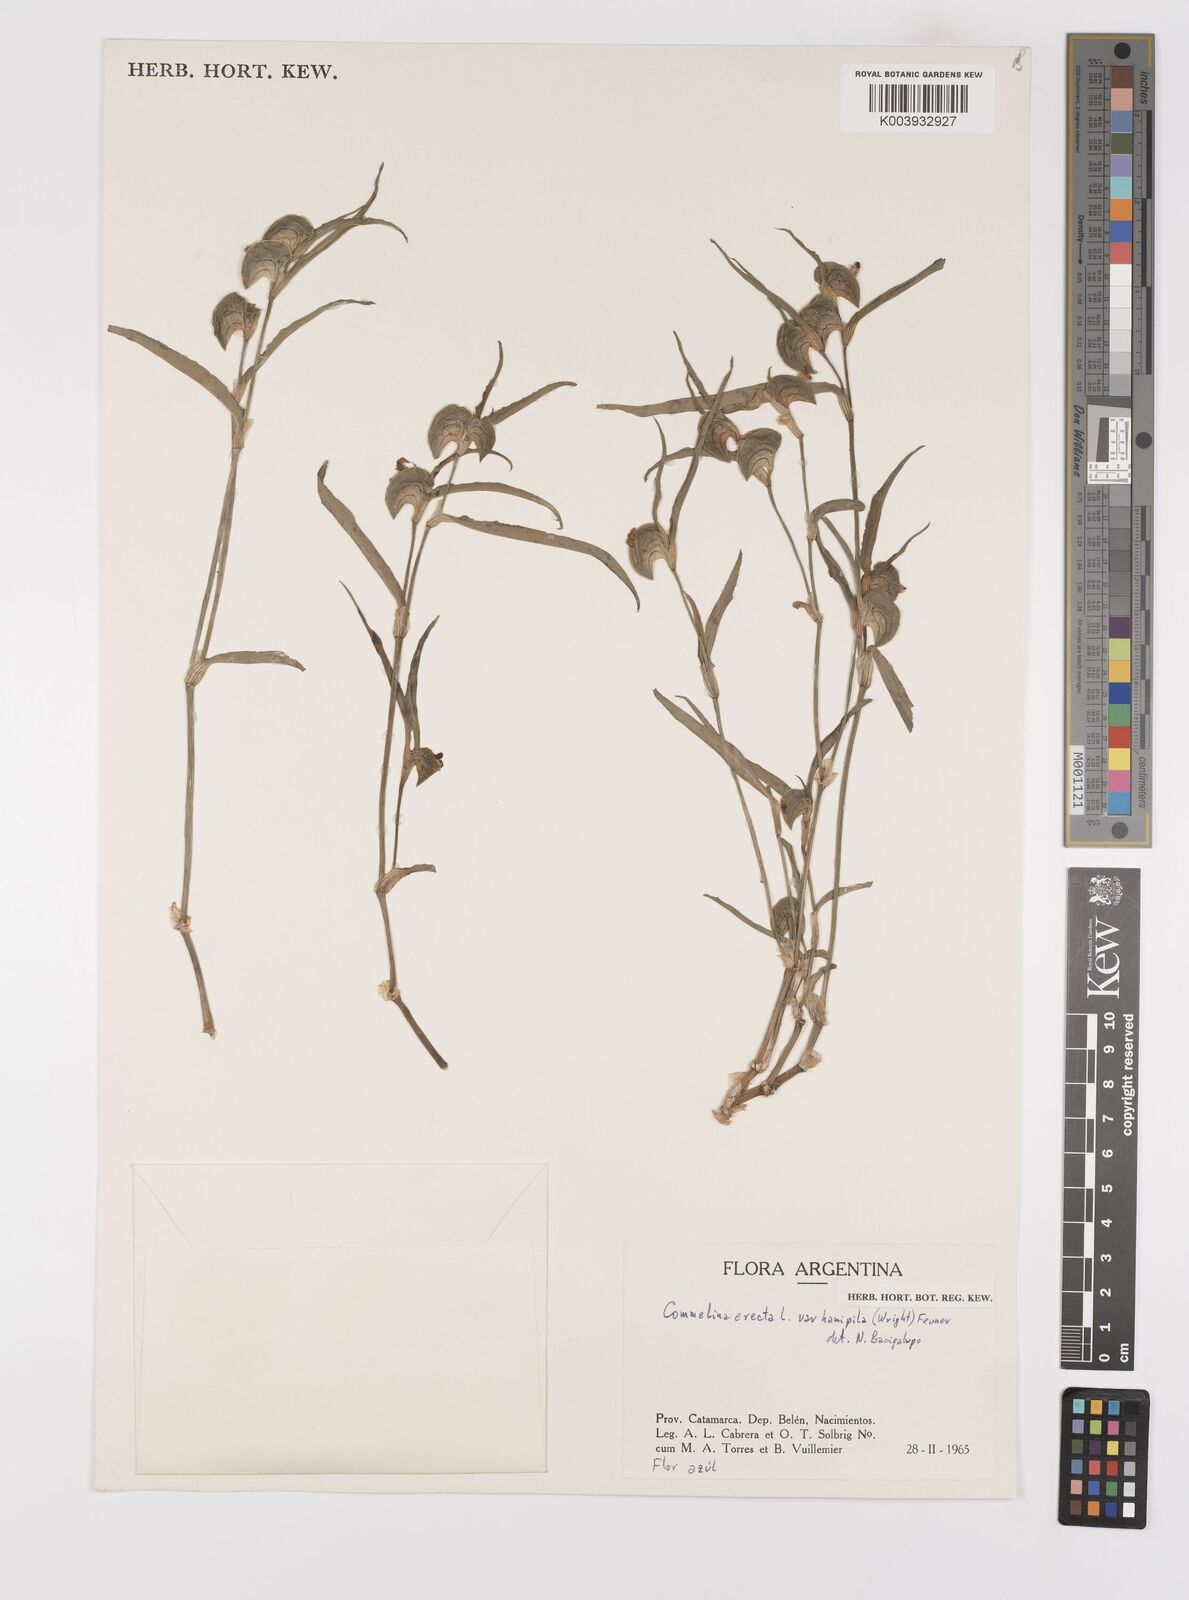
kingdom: Plantae
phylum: Tracheophyta
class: Liliopsida
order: Commelinales
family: Commelinaceae
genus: Commelina
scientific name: Commelina erecta
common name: Blousel blommetjie
